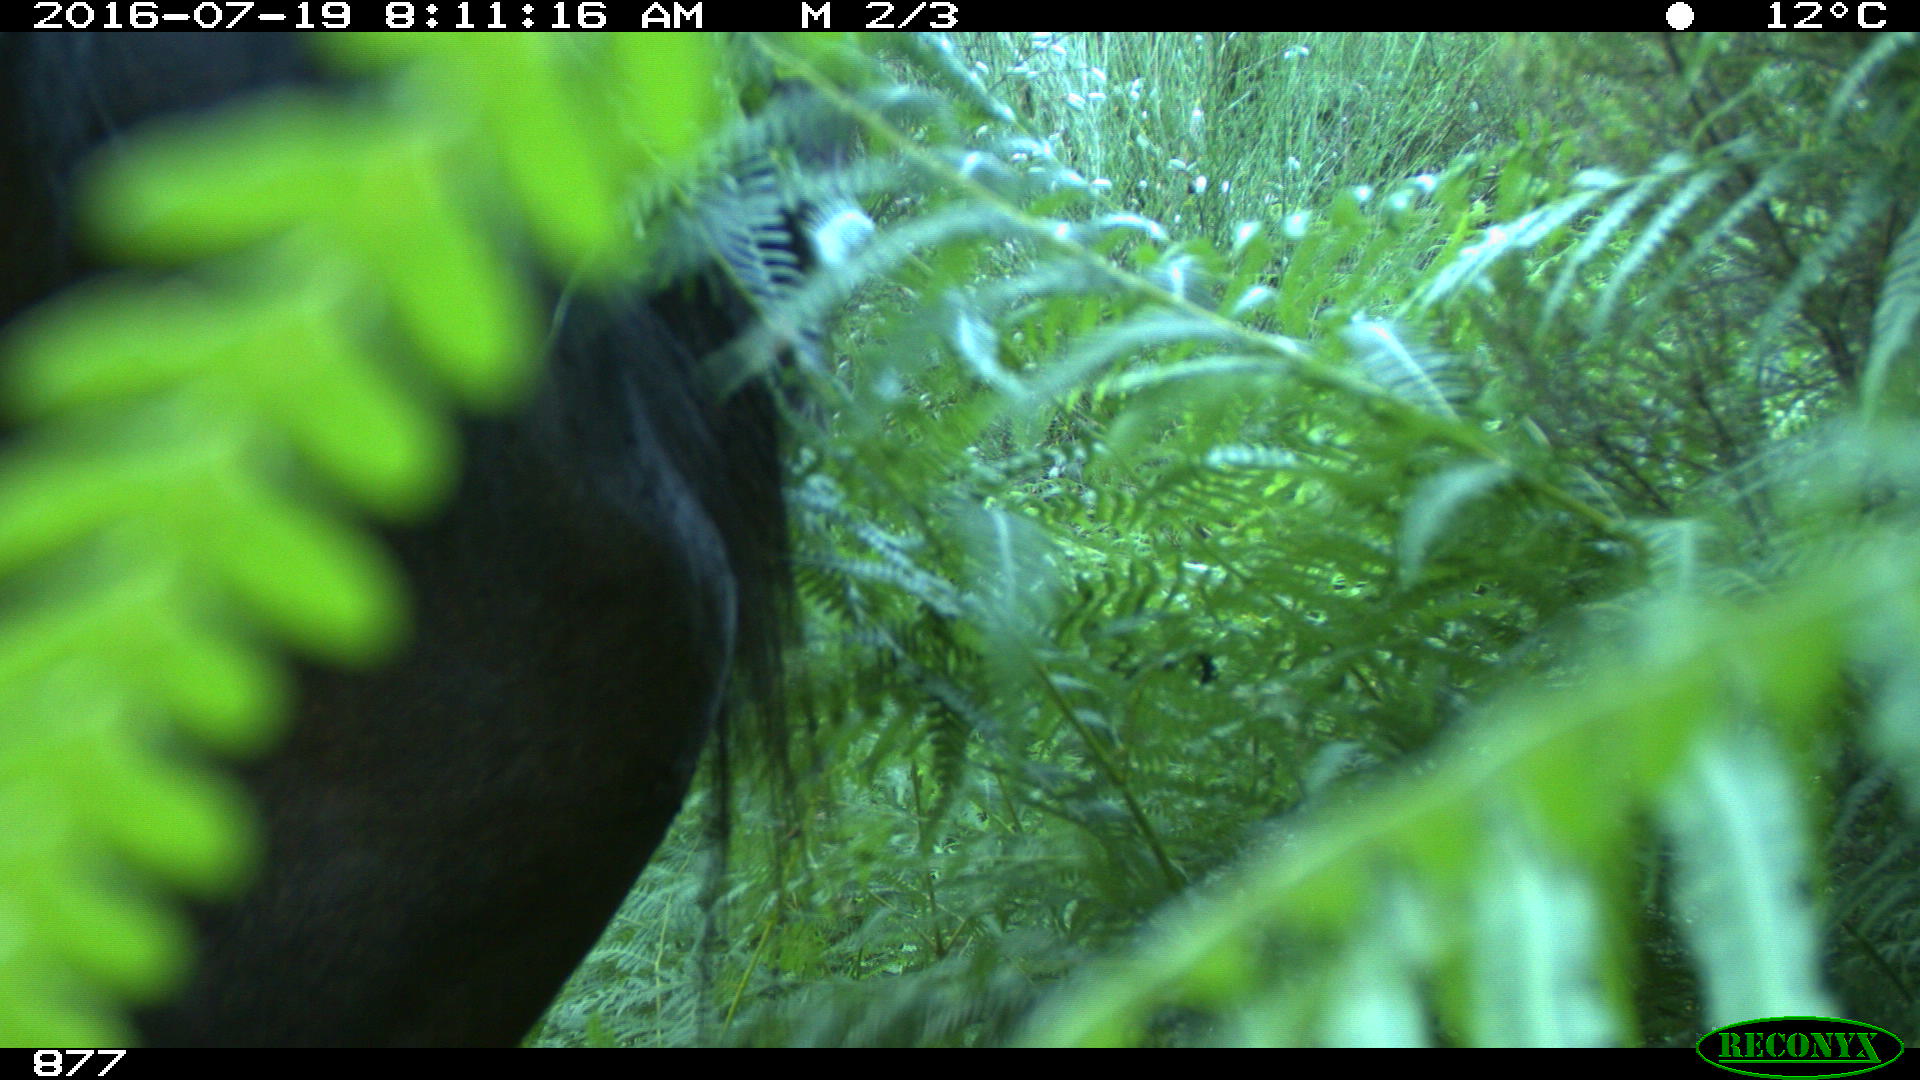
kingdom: Animalia
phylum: Chordata
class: Mammalia
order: Perissodactyla
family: Equidae
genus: Equus
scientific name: Equus caballus
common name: Horse
